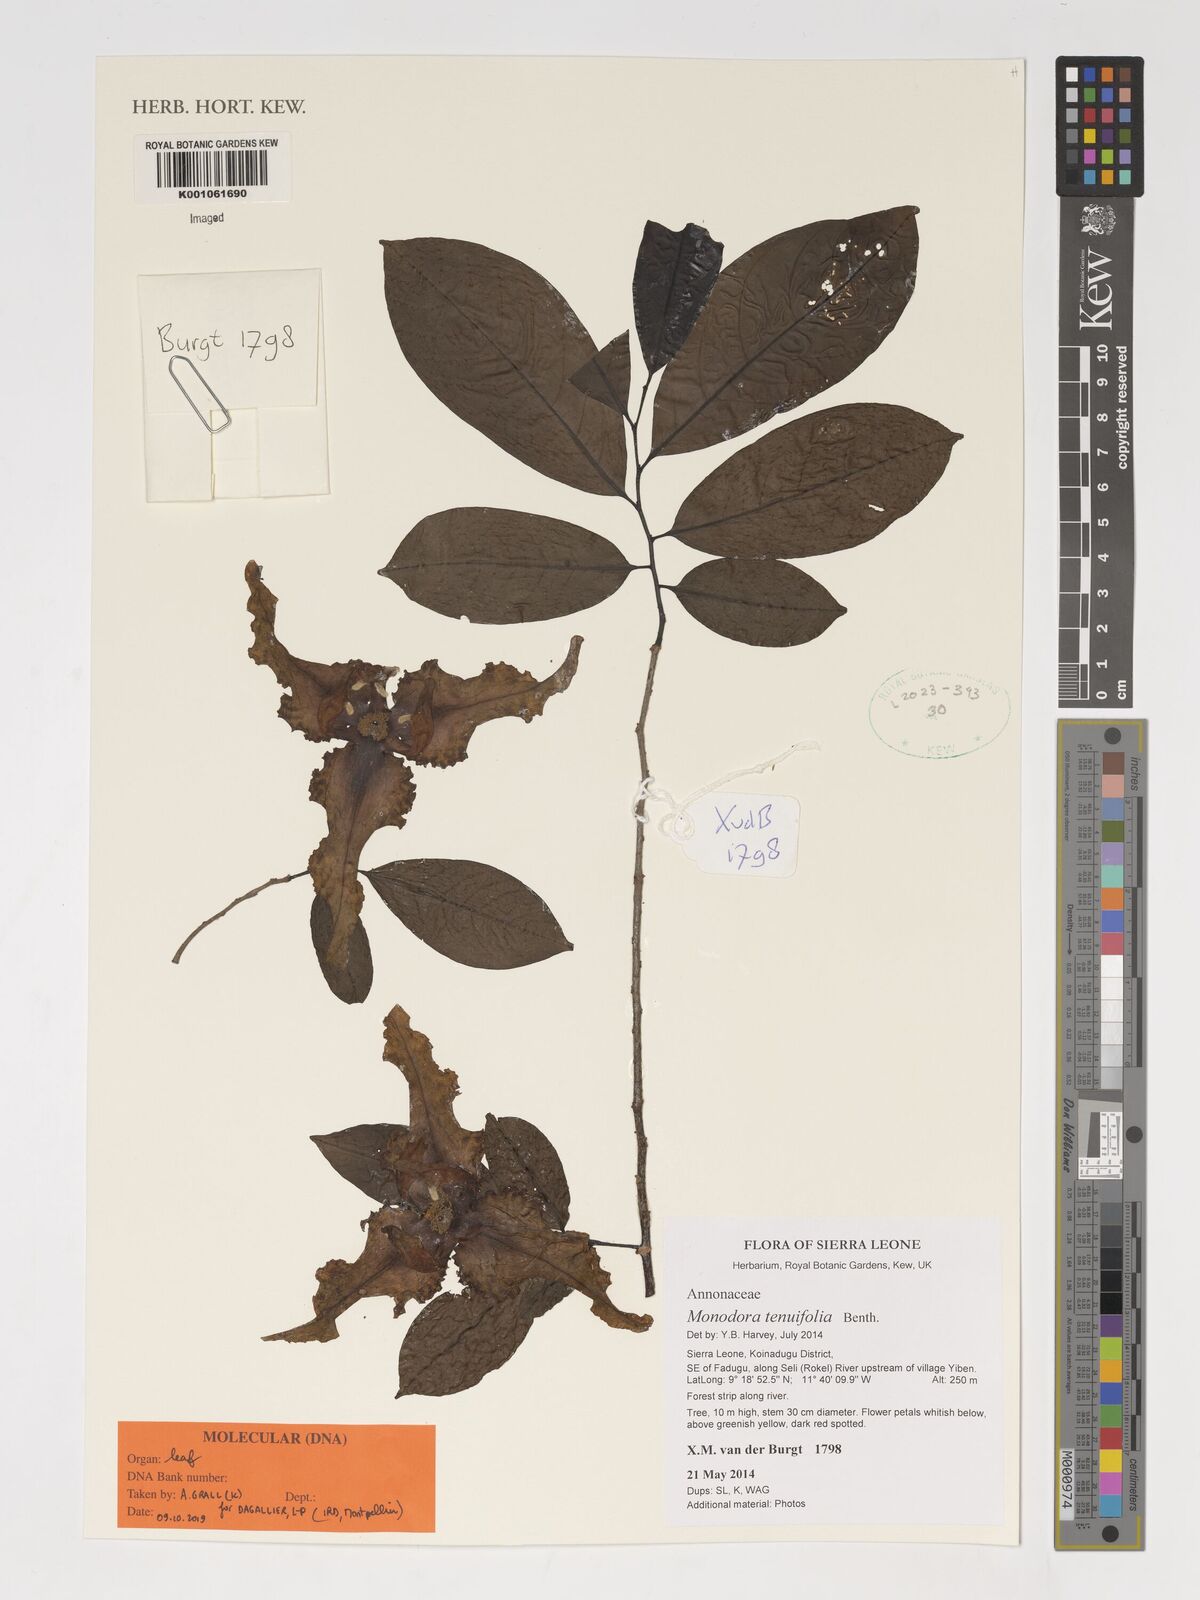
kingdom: Plantae
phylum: Tracheophyta
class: Magnoliopsida
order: Magnoliales
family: Annonaceae
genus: Monodora
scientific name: Monodora tenuifolia
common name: Orchidtree
